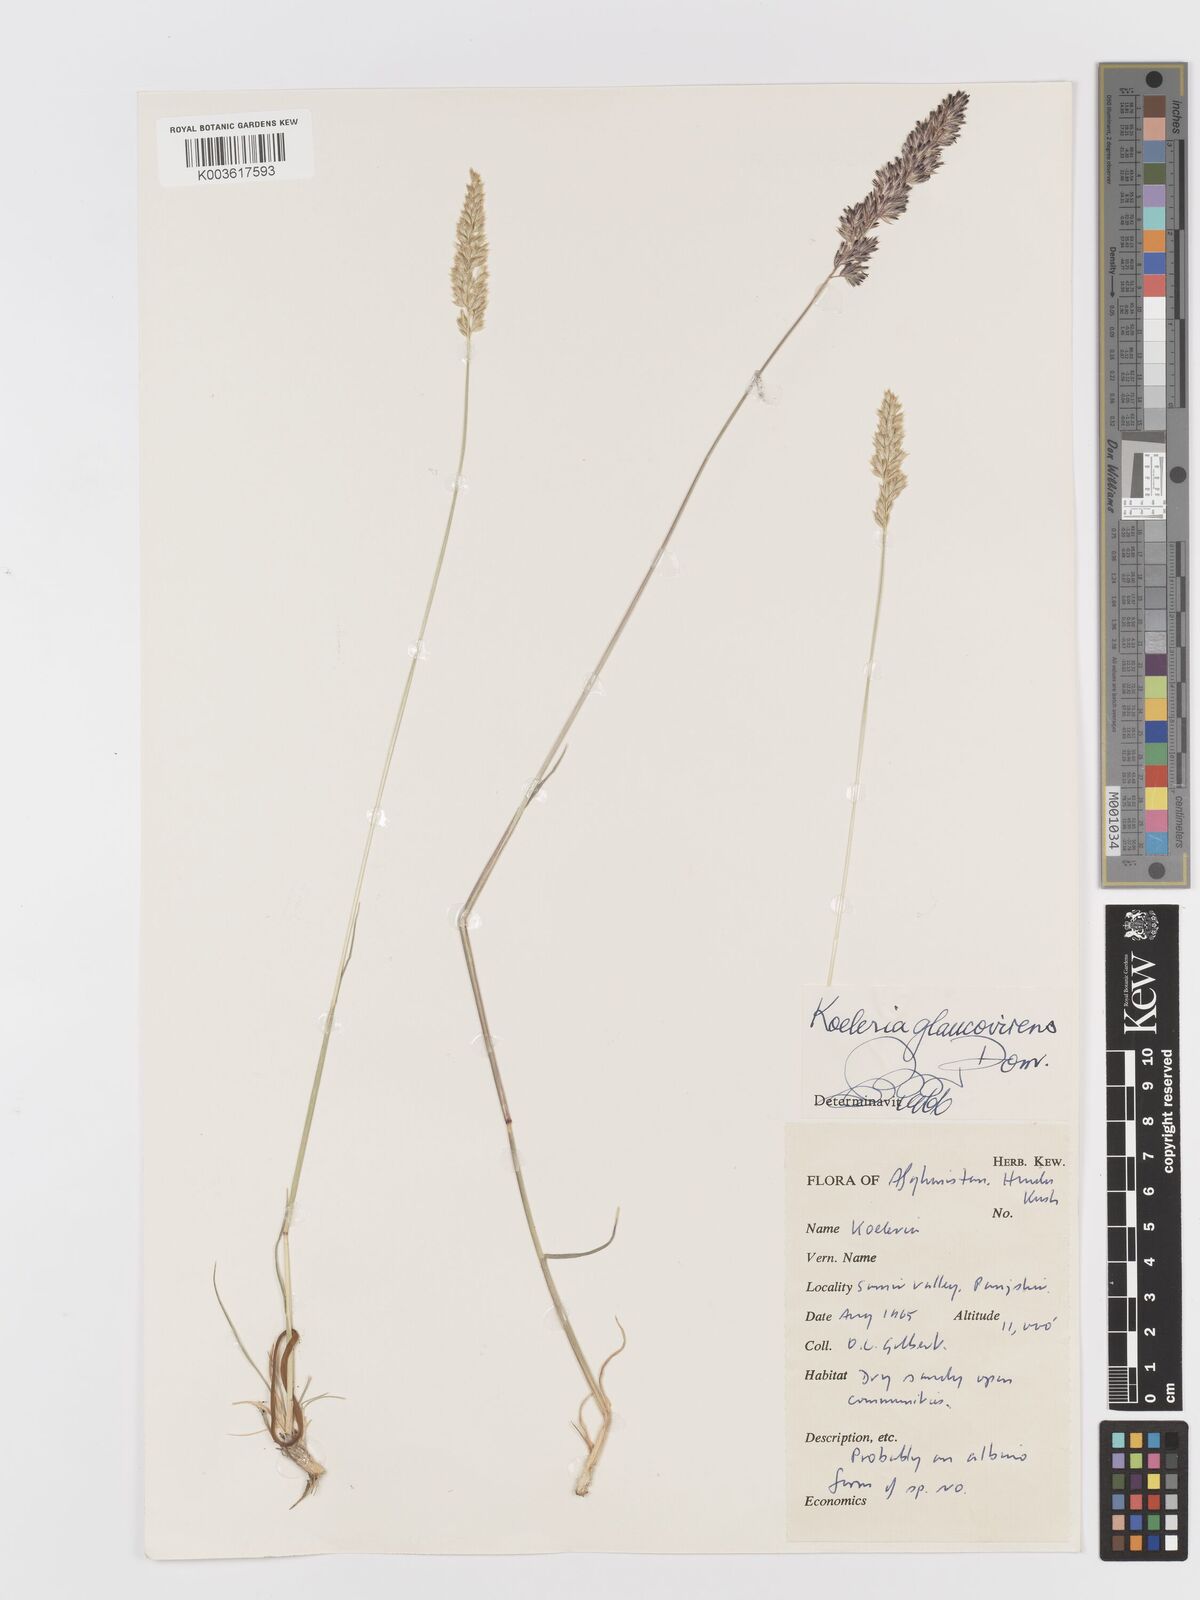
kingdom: Plantae
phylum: Tracheophyta
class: Liliopsida
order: Poales
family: Poaceae
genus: Koeleria
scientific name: Koeleria macrantha
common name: Crested hair-grass
